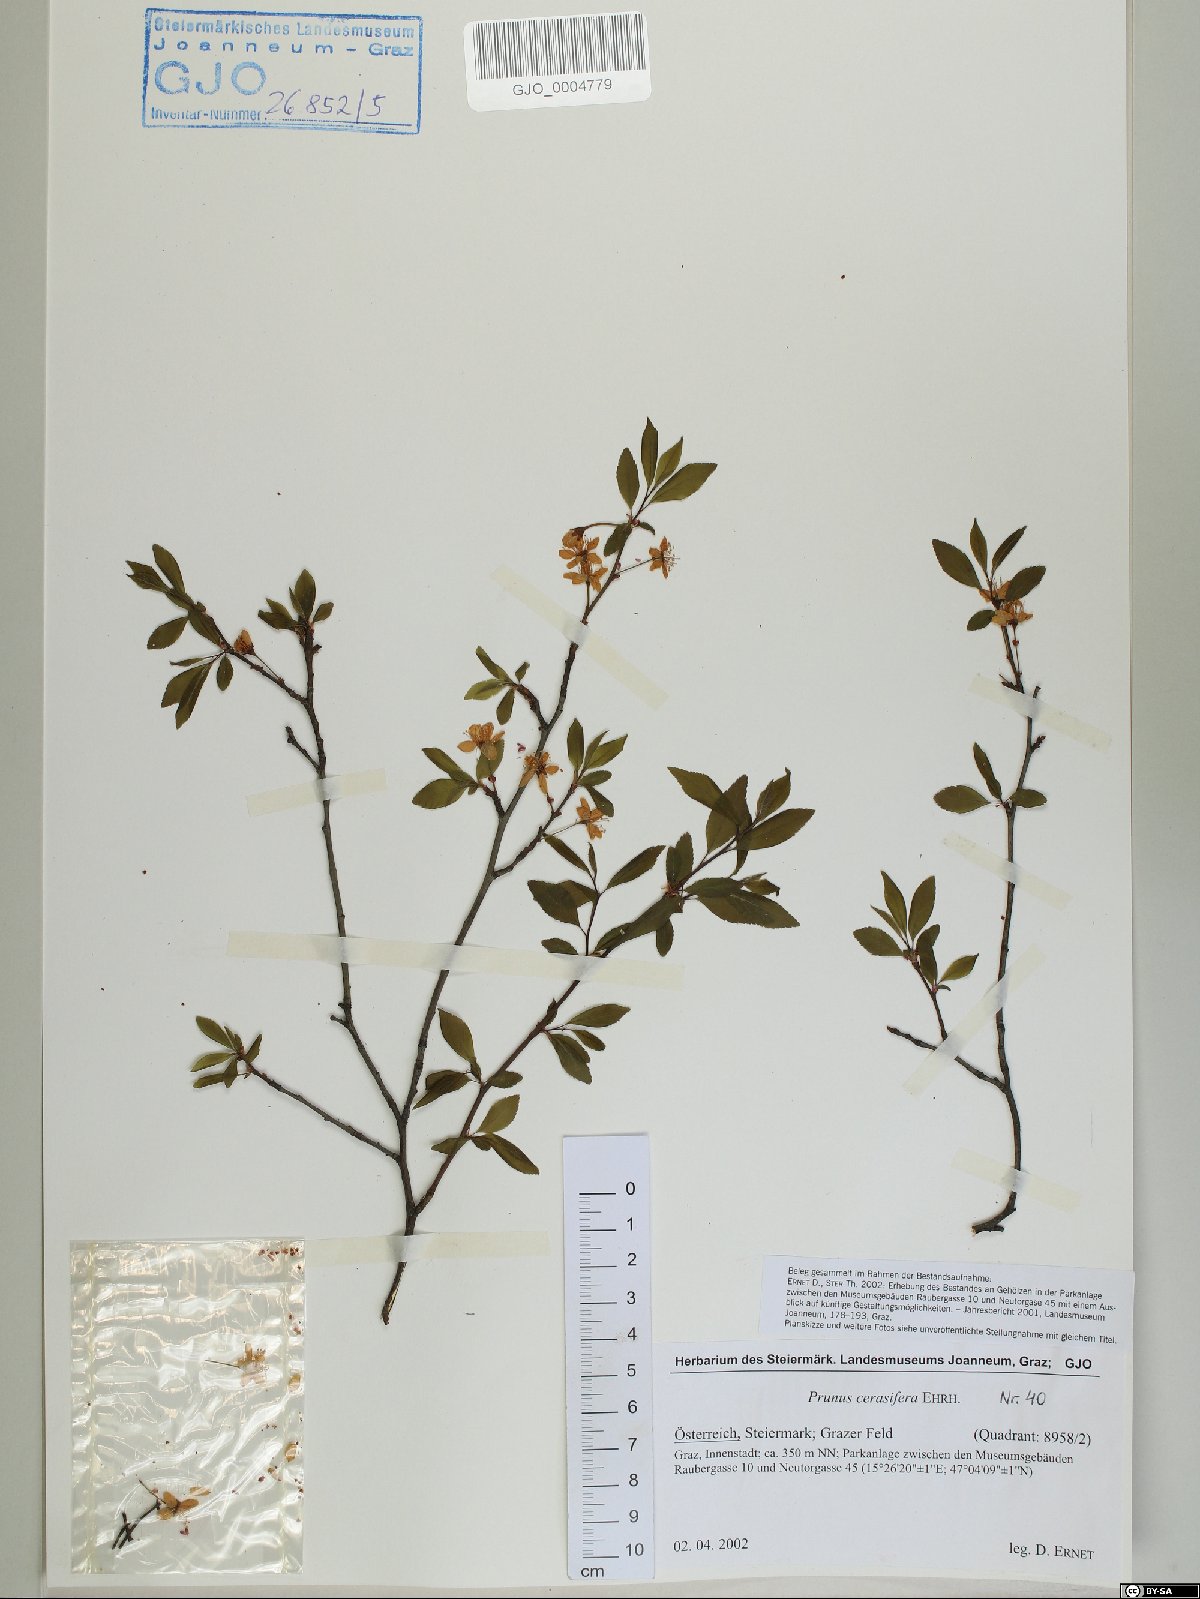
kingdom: Plantae
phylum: Tracheophyta
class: Magnoliopsida
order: Rosales
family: Rosaceae
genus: Prunus
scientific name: Prunus cerasifera
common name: Cherry plum
